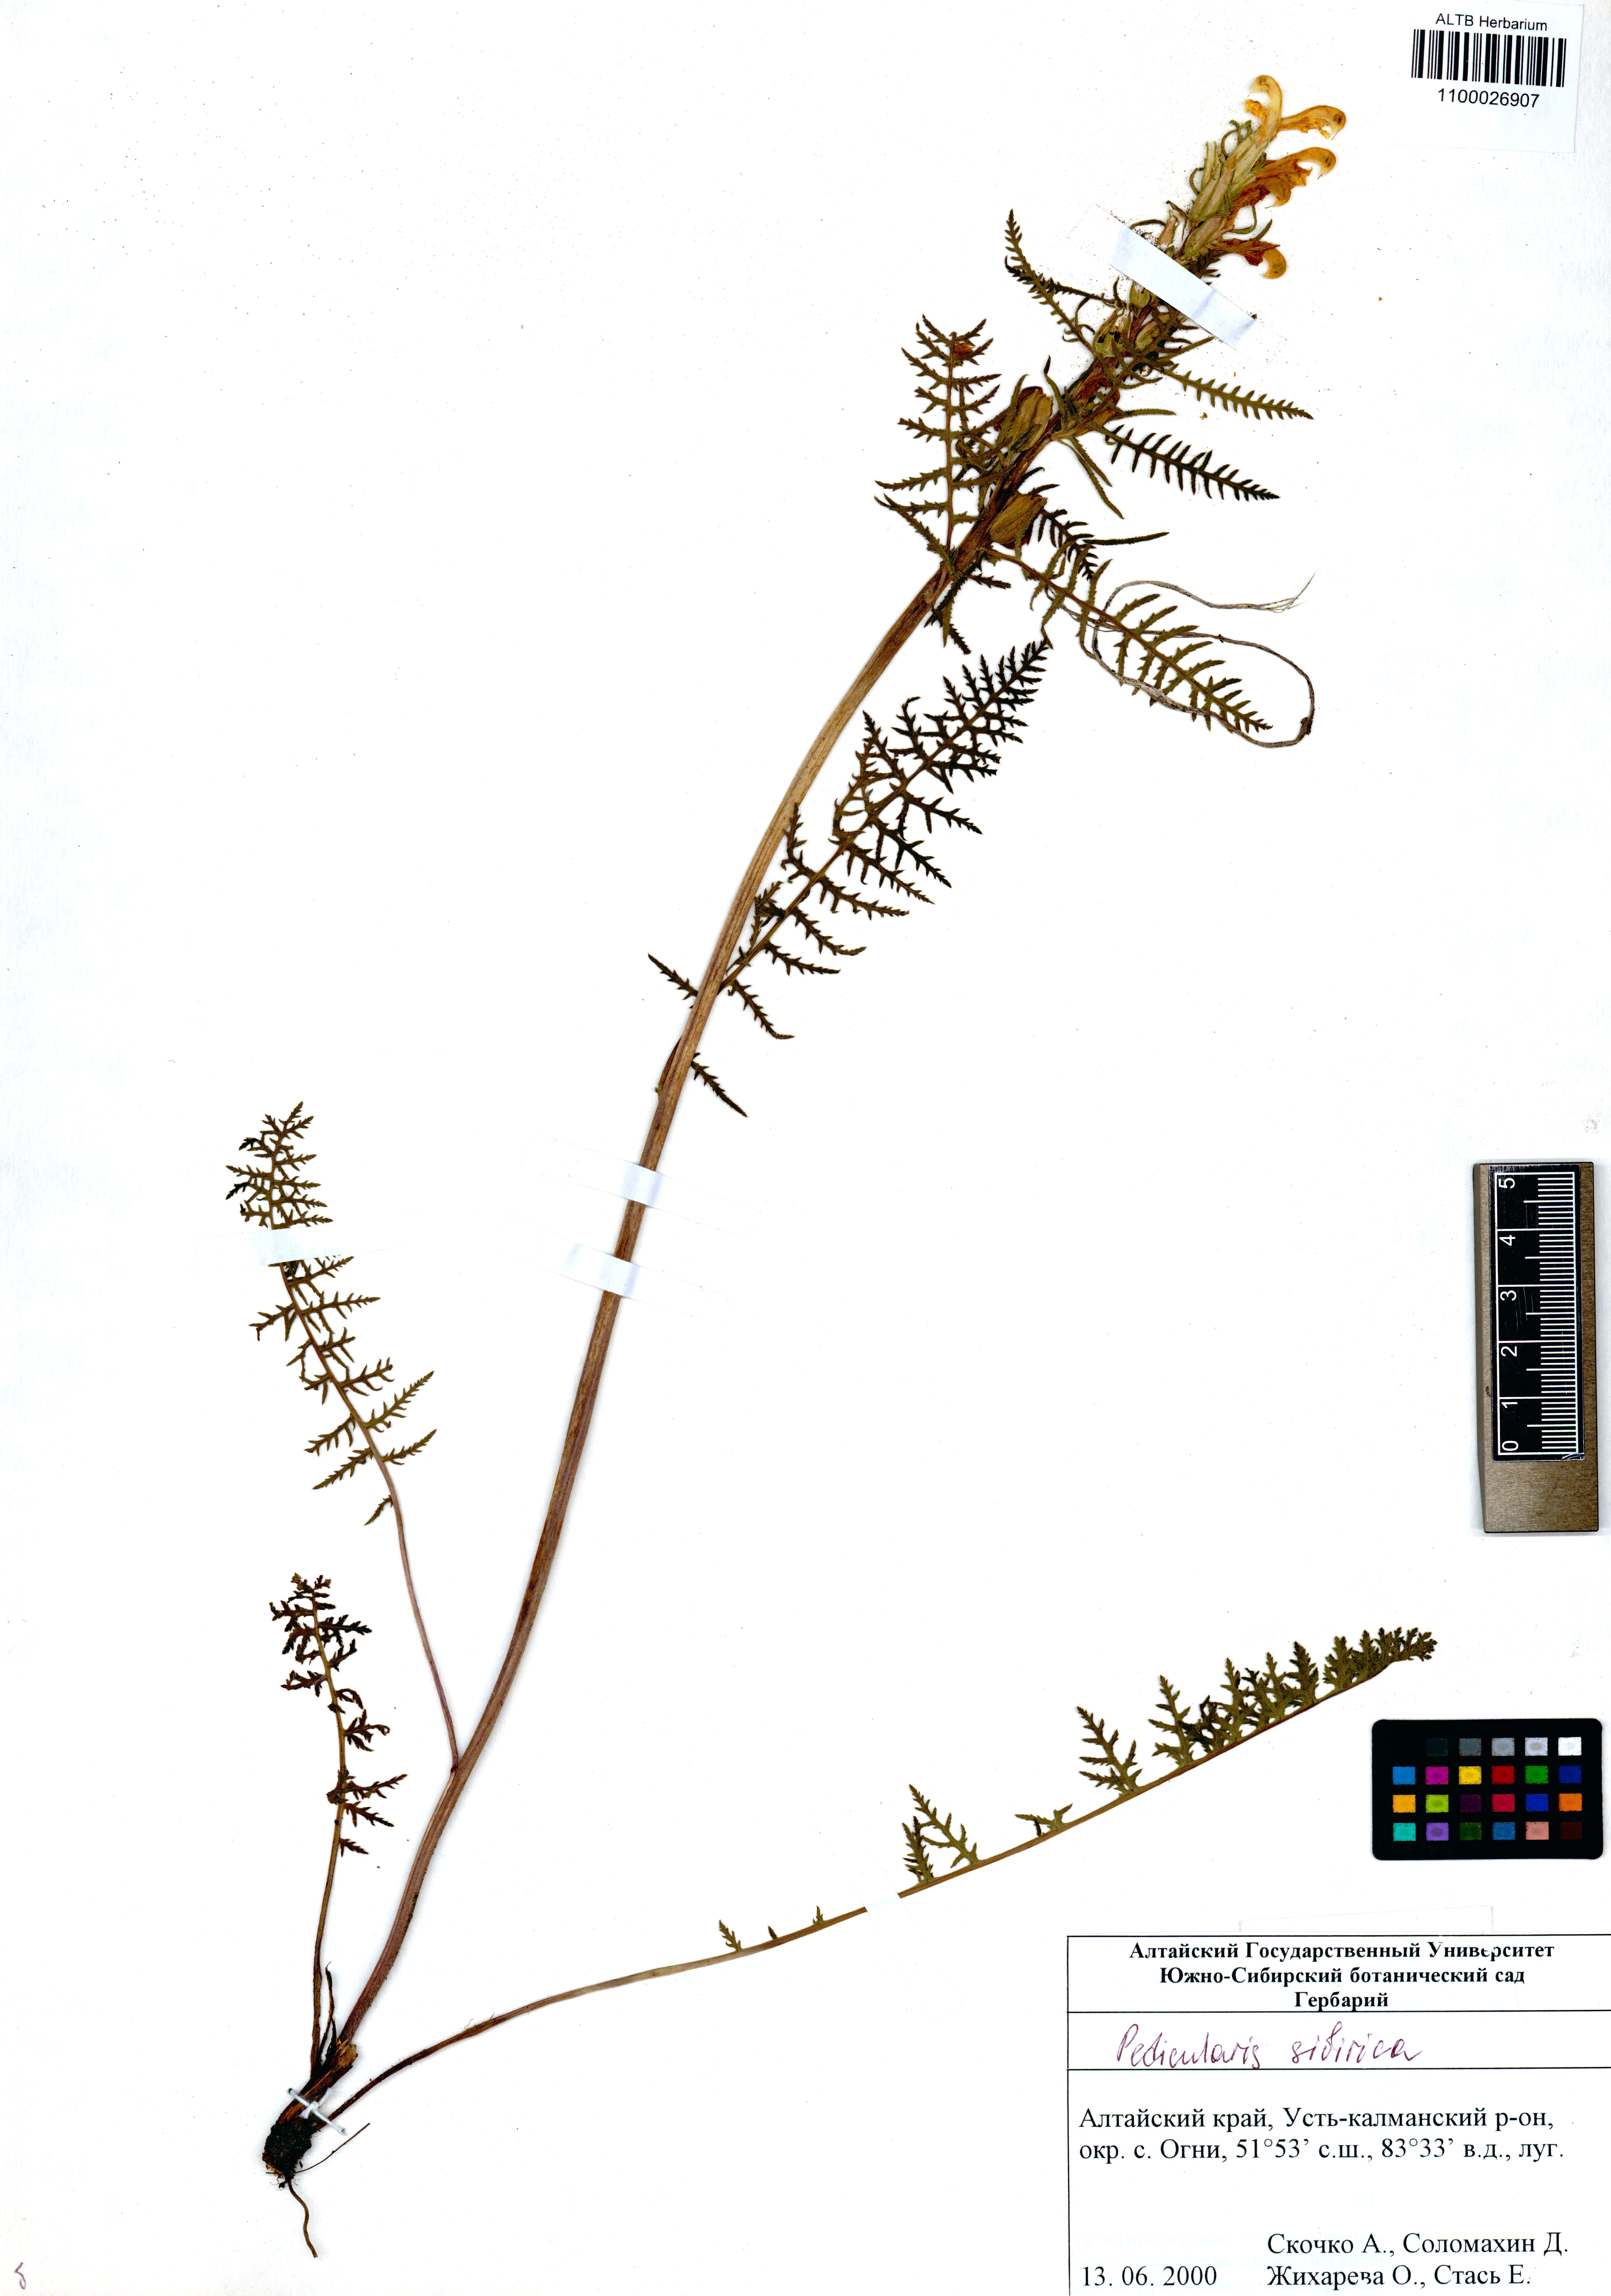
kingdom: Plantae
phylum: Tracheophyta
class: Magnoliopsida
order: Lamiales
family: Orobanchaceae
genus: Pedicularis
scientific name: Pedicularis sibirica
